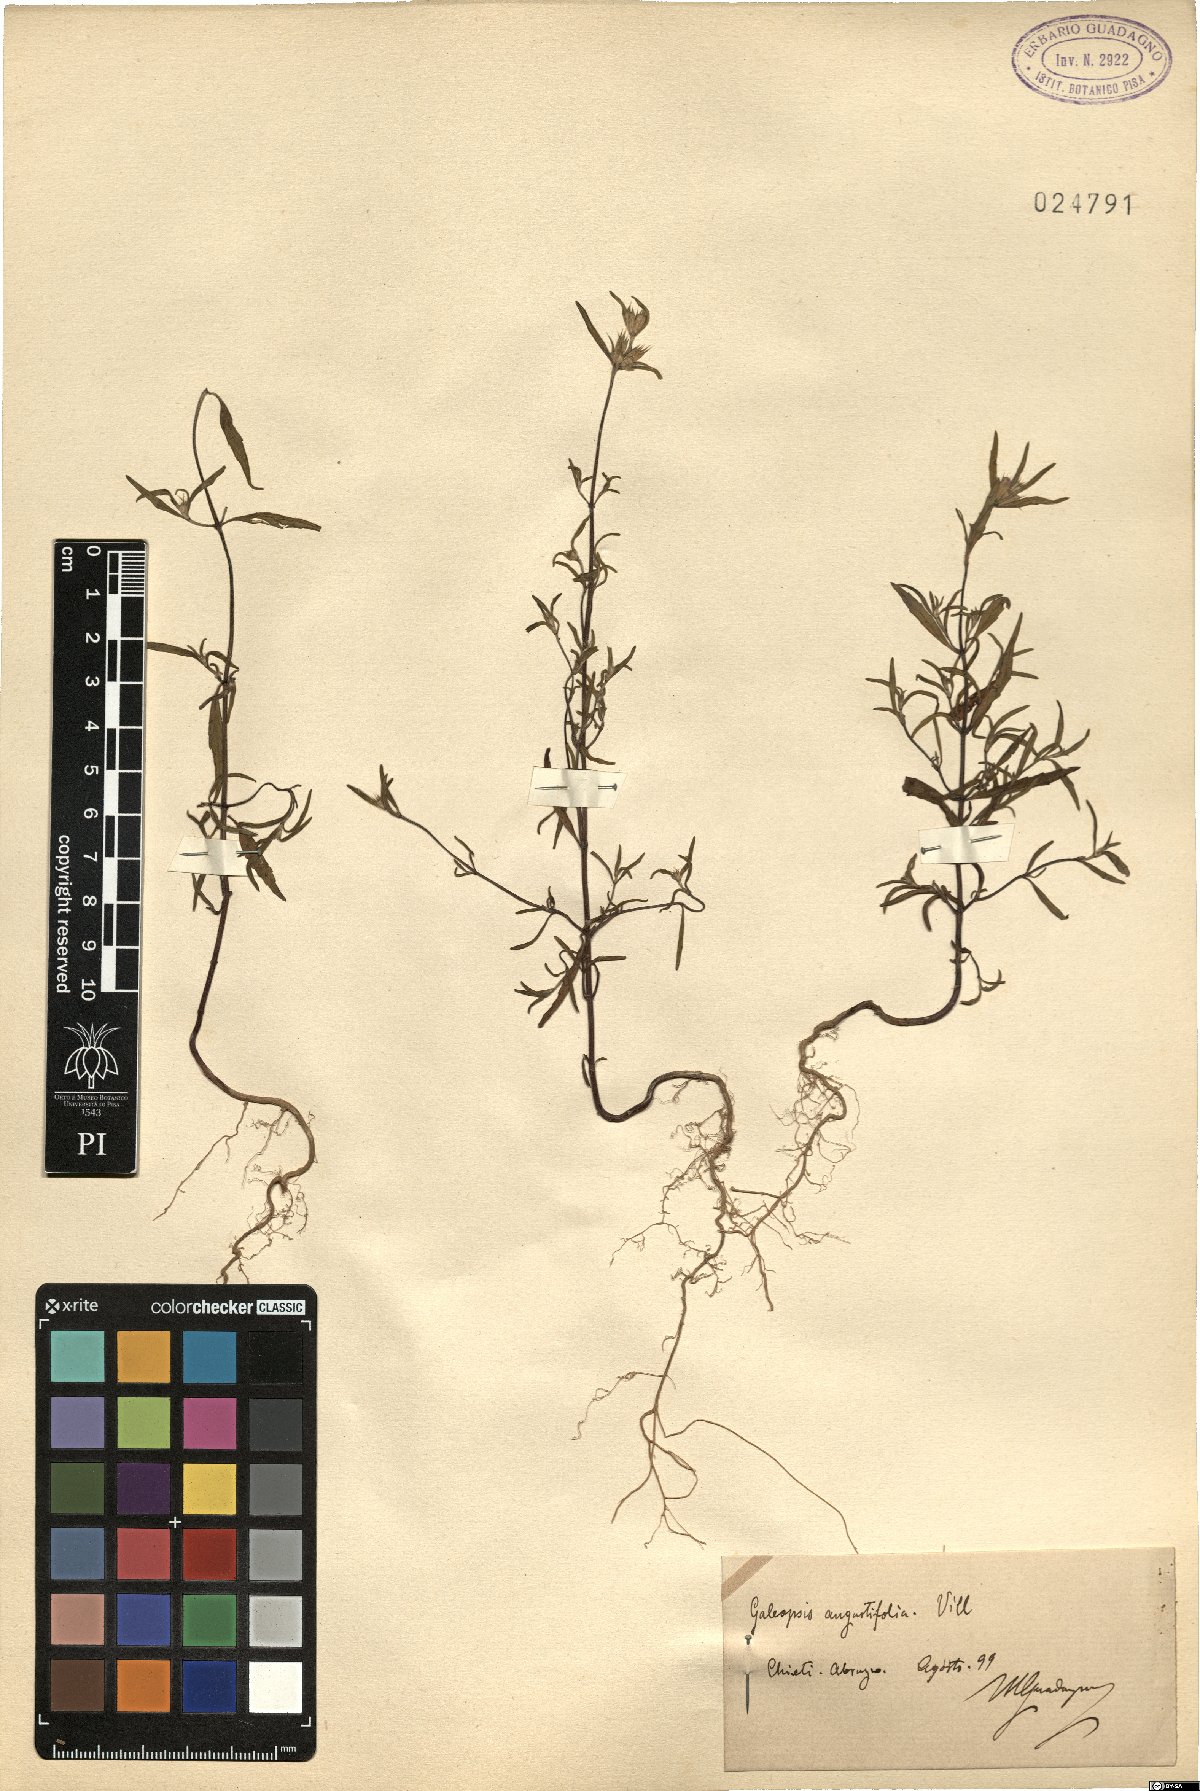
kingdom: Plantae
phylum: Tracheophyta
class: Magnoliopsida
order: Lamiales
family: Lamiaceae
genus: Galeopsis
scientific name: Galeopsis angustifolia
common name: Red hemp-nettle
